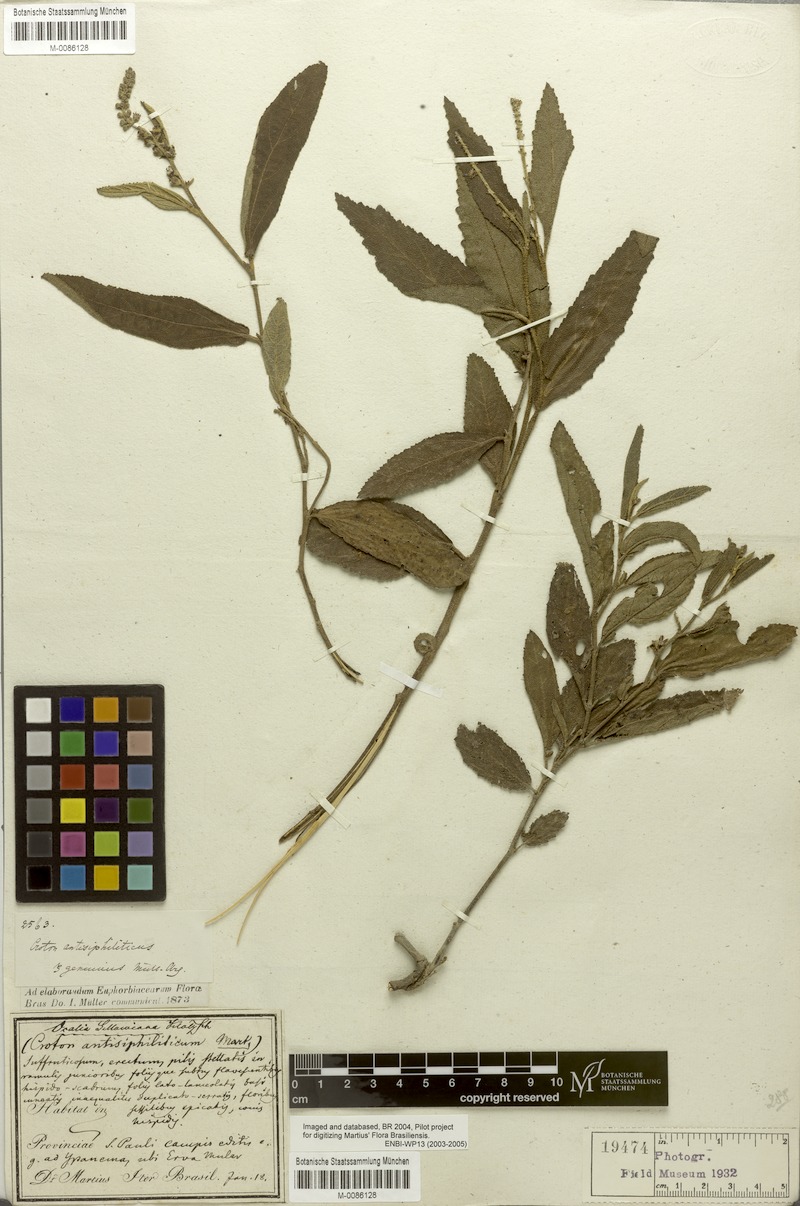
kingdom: Plantae
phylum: Tracheophyta
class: Magnoliopsida
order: Malpighiales
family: Euphorbiaceae
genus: Croton
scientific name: Croton antisyphiliticus
